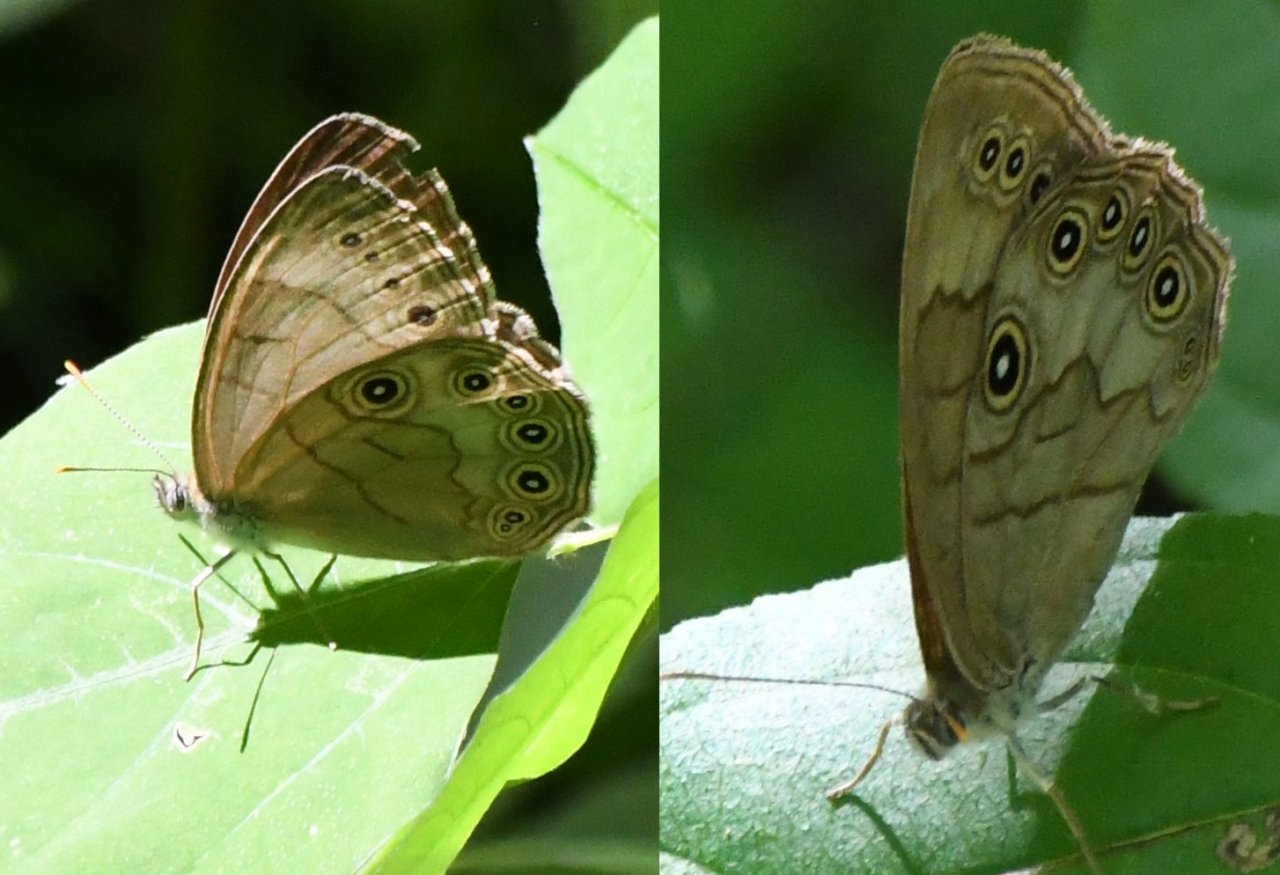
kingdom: Animalia
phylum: Arthropoda
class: Insecta
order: Lepidoptera
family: Nymphalidae
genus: Lethe
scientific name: Lethe eurydice
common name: Appalachian Eyed Brown
